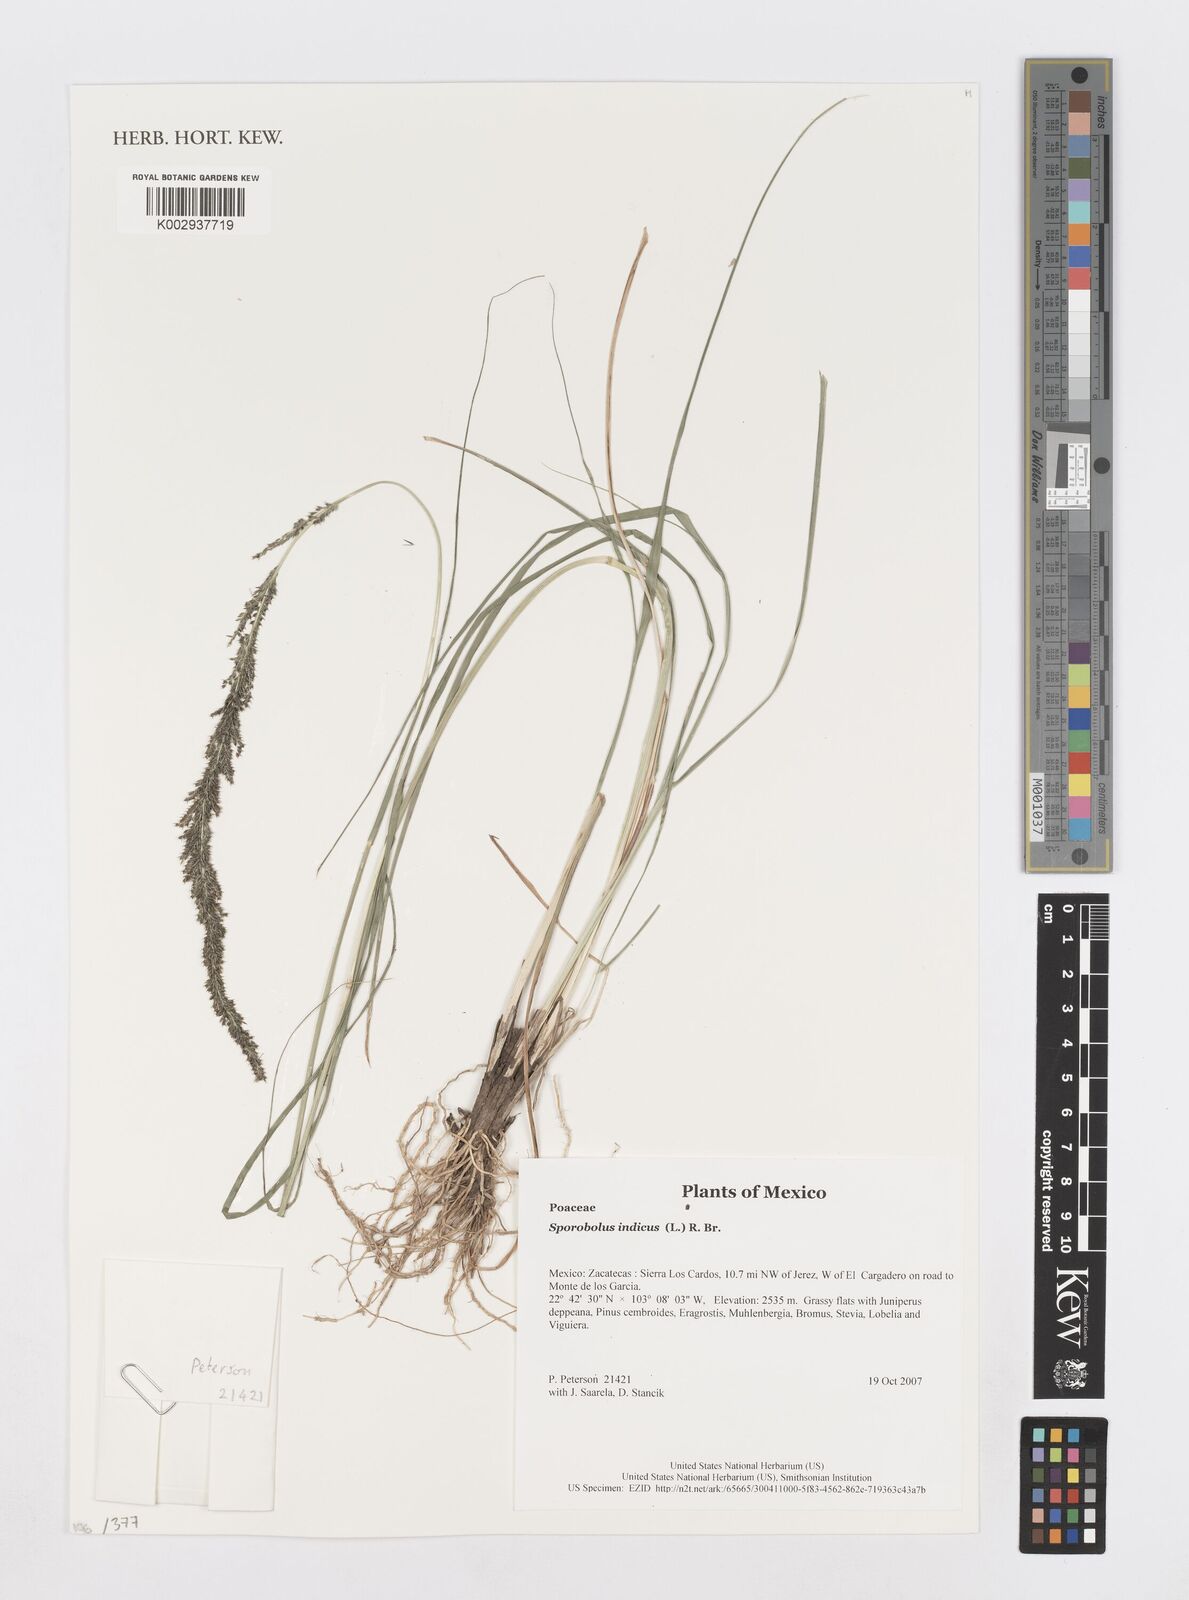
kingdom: Plantae
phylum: Tracheophyta
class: Liliopsida
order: Poales
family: Poaceae
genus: Sporobolus
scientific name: Sporobolus junceus
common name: Lizard grass
